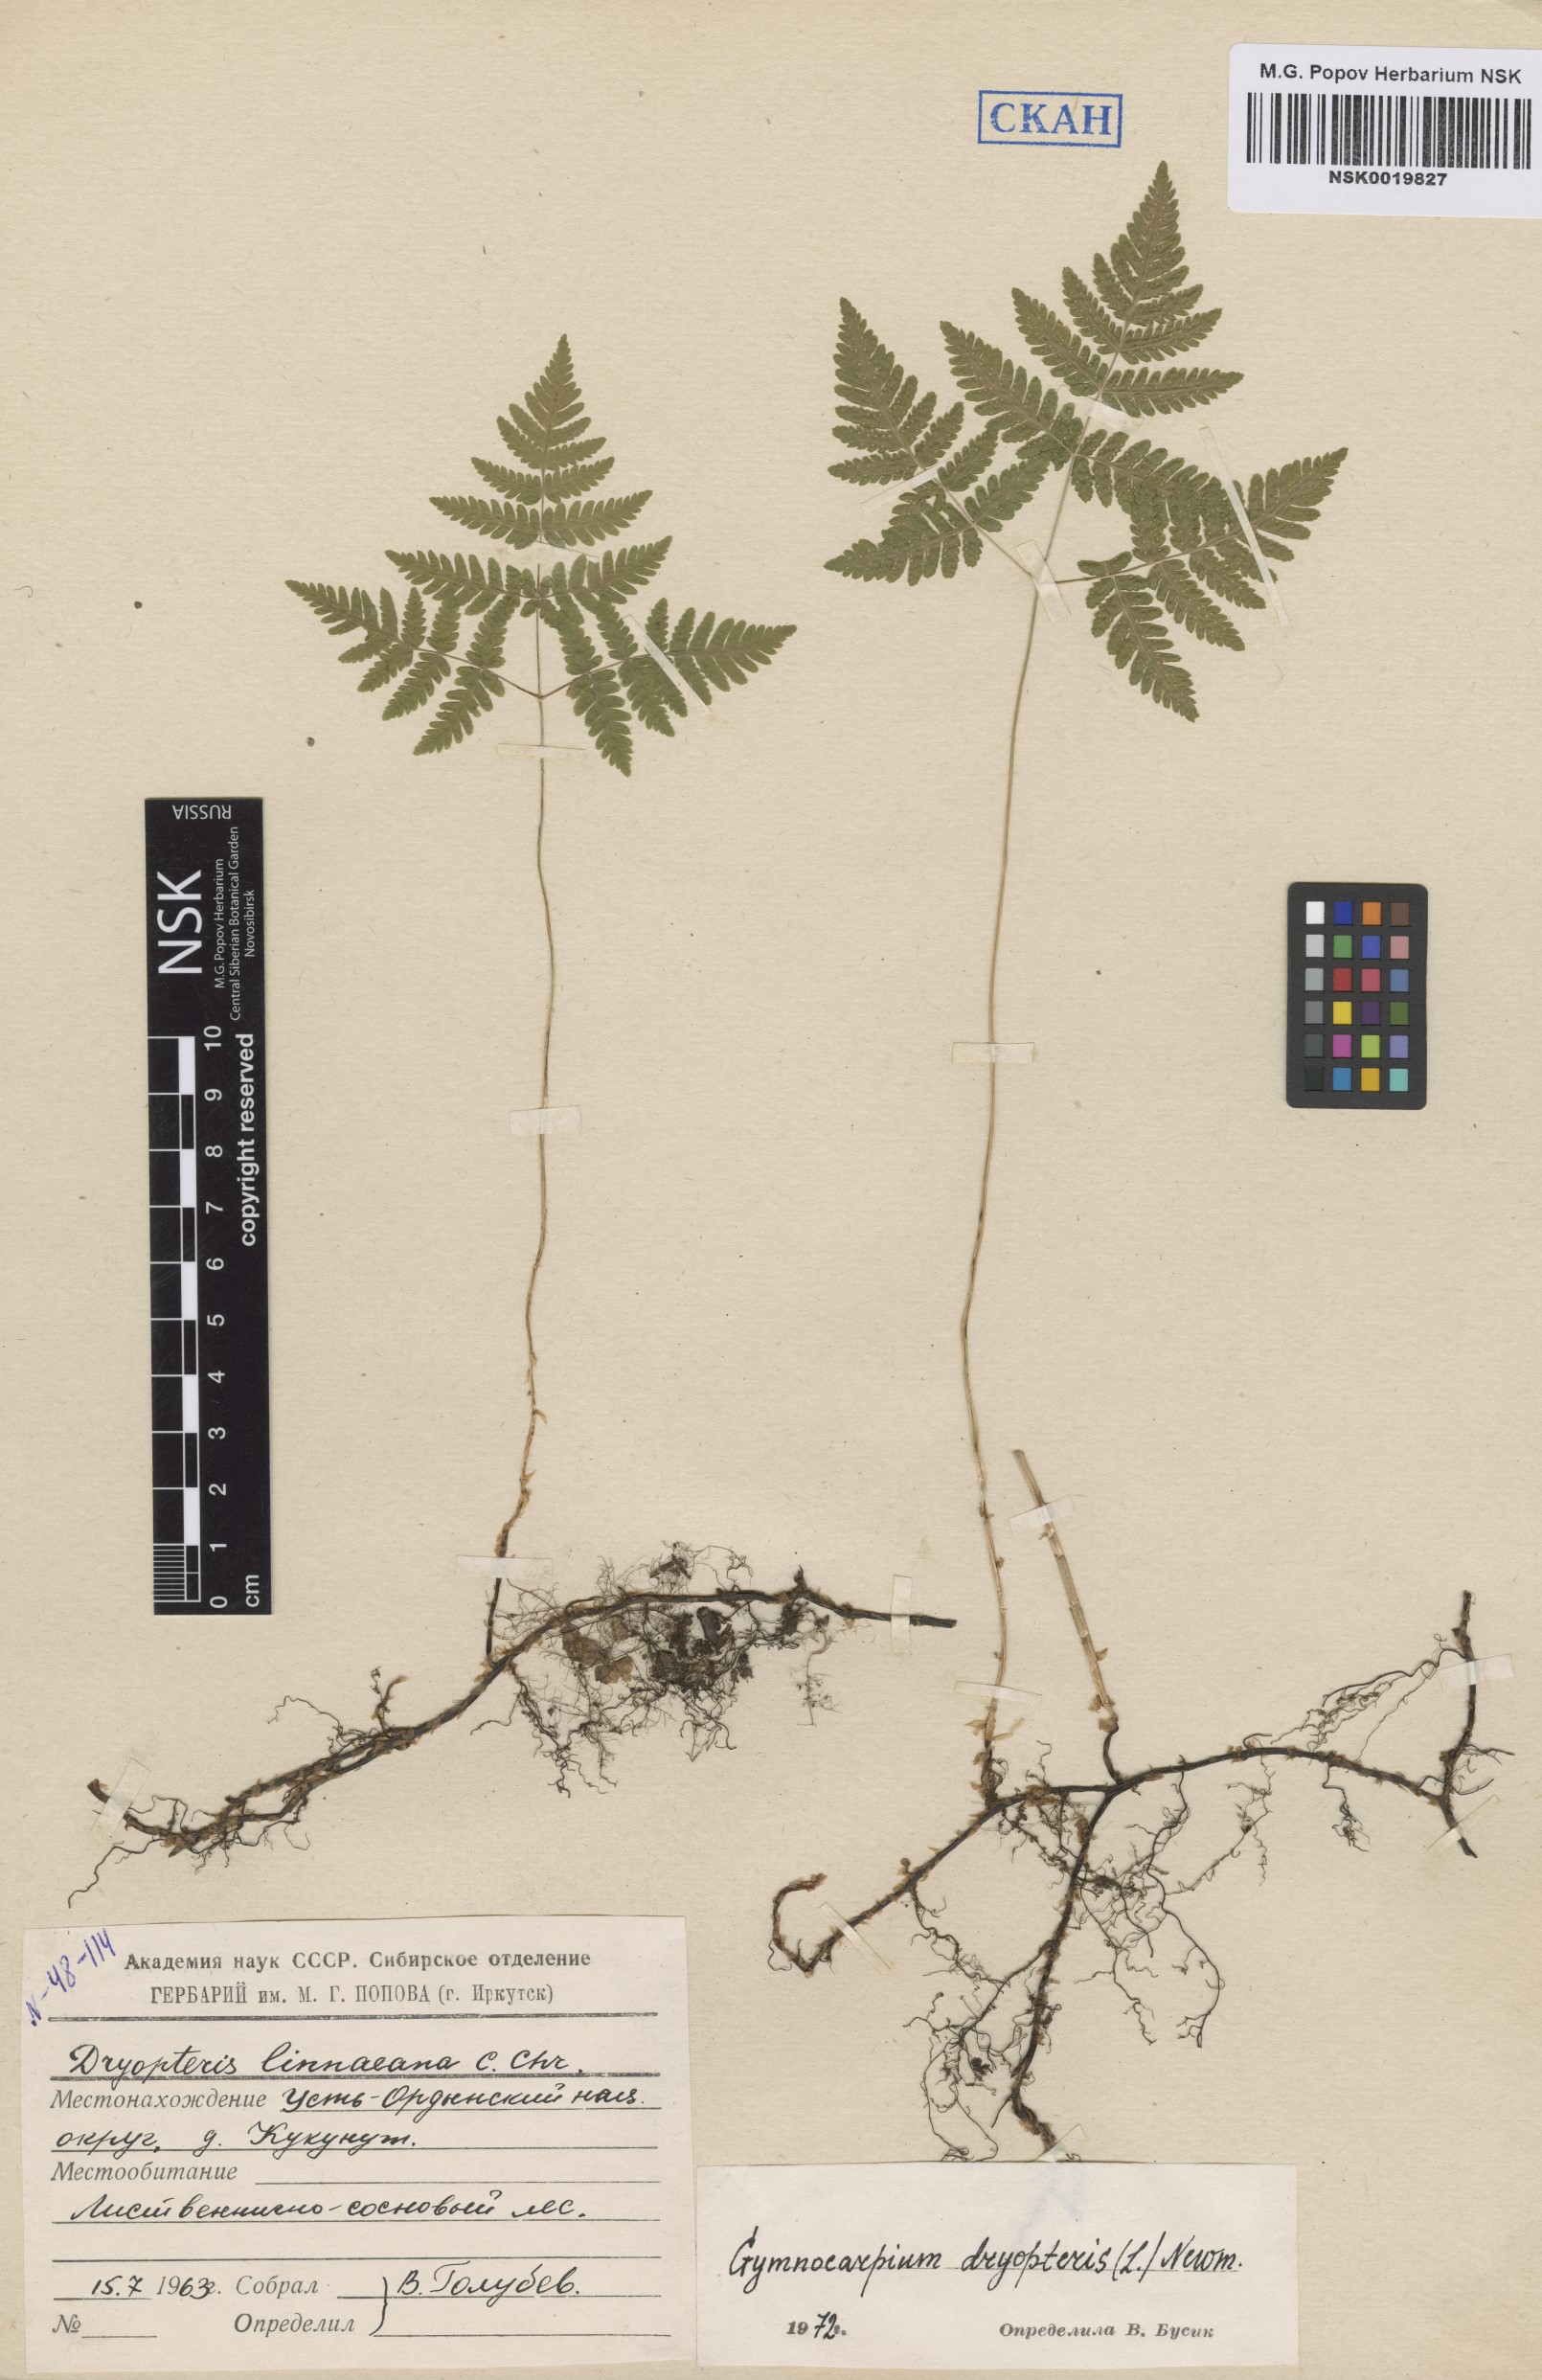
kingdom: Plantae
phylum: Tracheophyta
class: Polypodiopsida
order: Polypodiales
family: Cystopteridaceae
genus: Gymnocarpium
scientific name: Gymnocarpium dryopteris
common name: Oak fern
